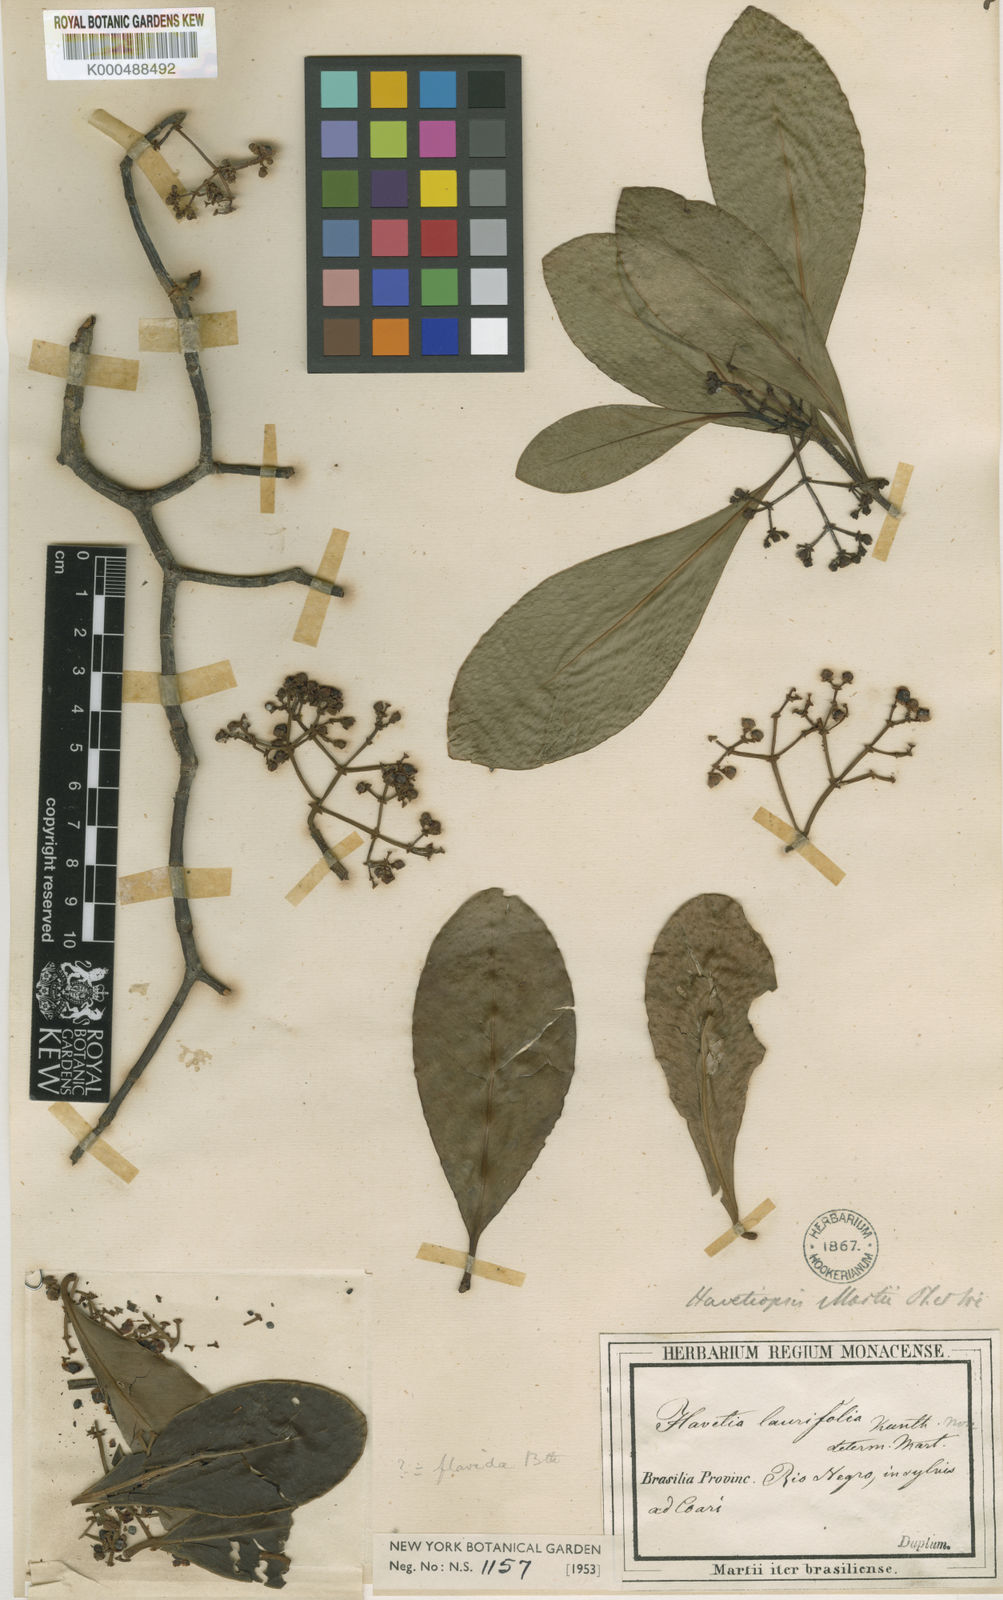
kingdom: Plantae
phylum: Tracheophyta
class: Magnoliopsida
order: Malpighiales
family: Clusiaceae
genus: Clusia
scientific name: Clusia flavida
